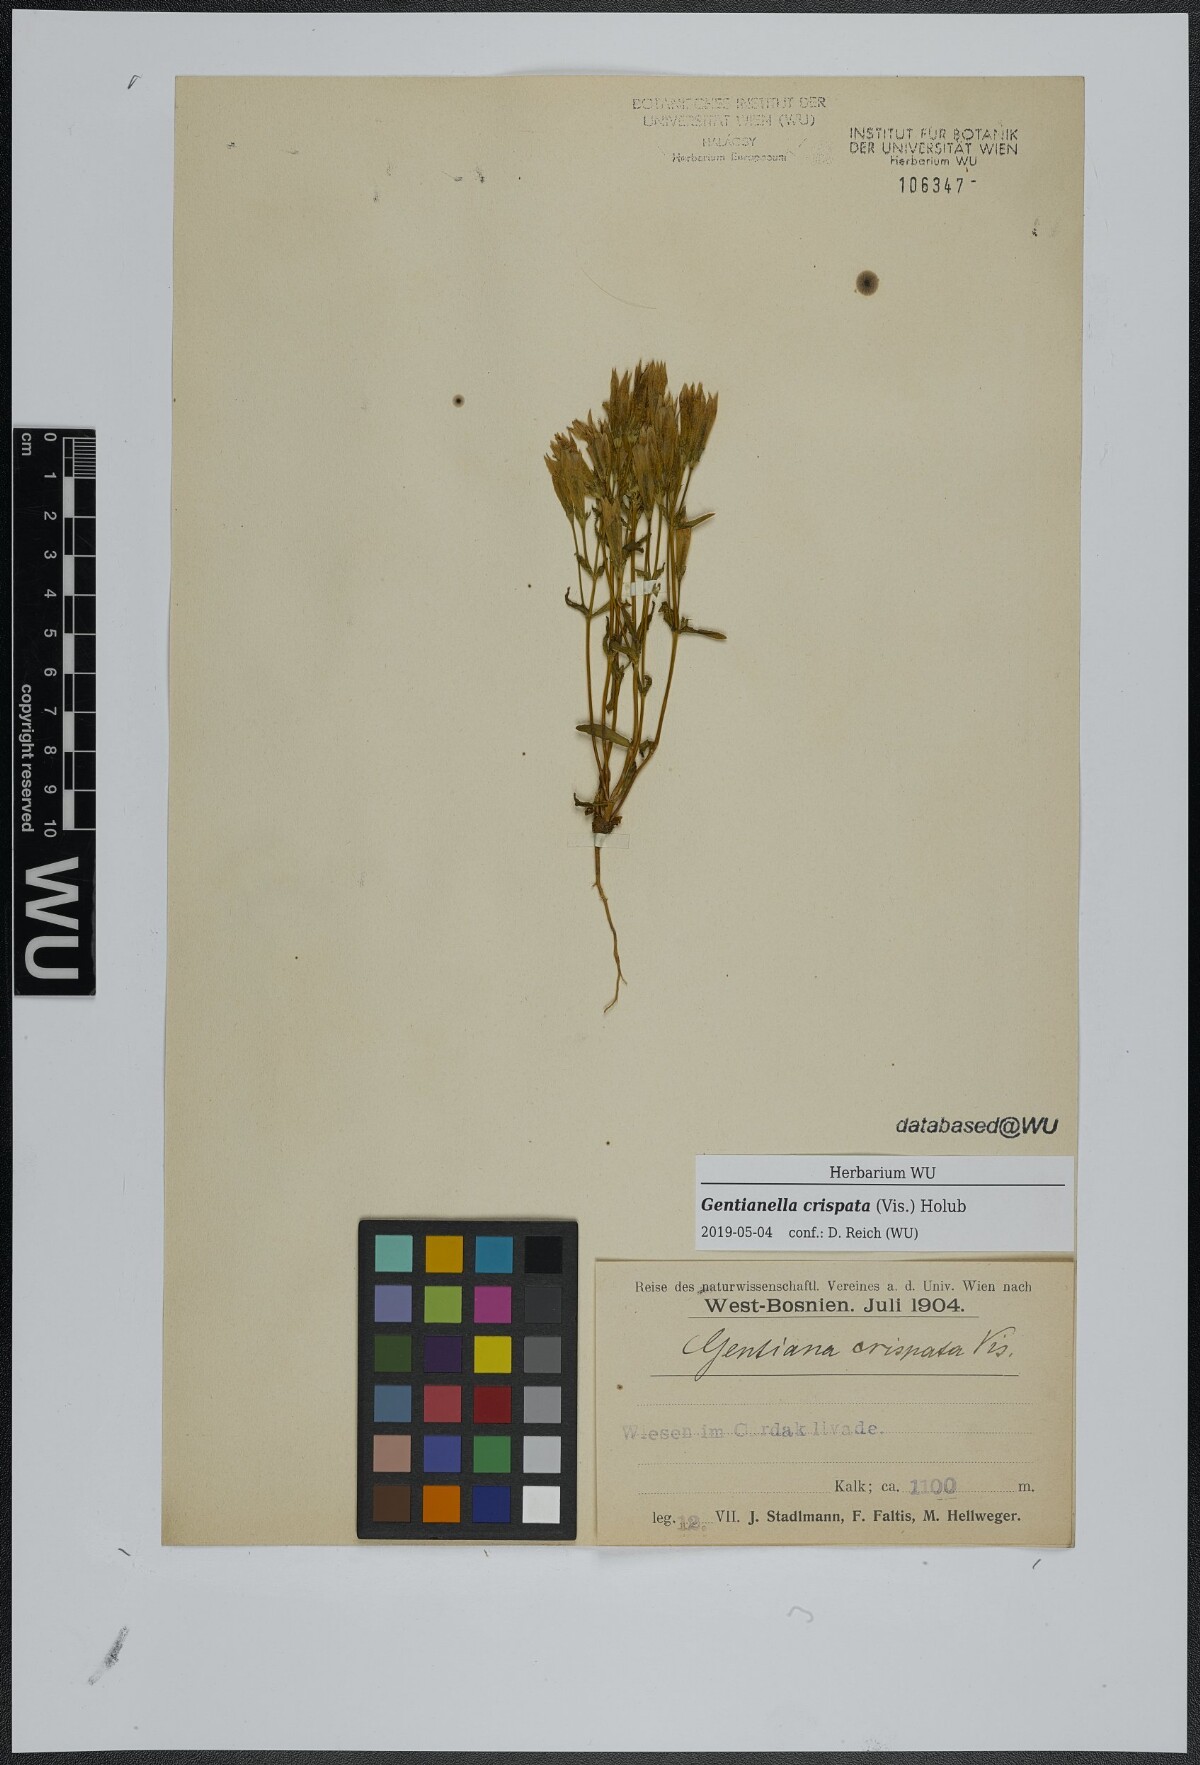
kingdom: Plantae
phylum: Tracheophyta
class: Magnoliopsida
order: Gentianales
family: Gentianaceae
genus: Gentianella
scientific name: Gentianella crispata
